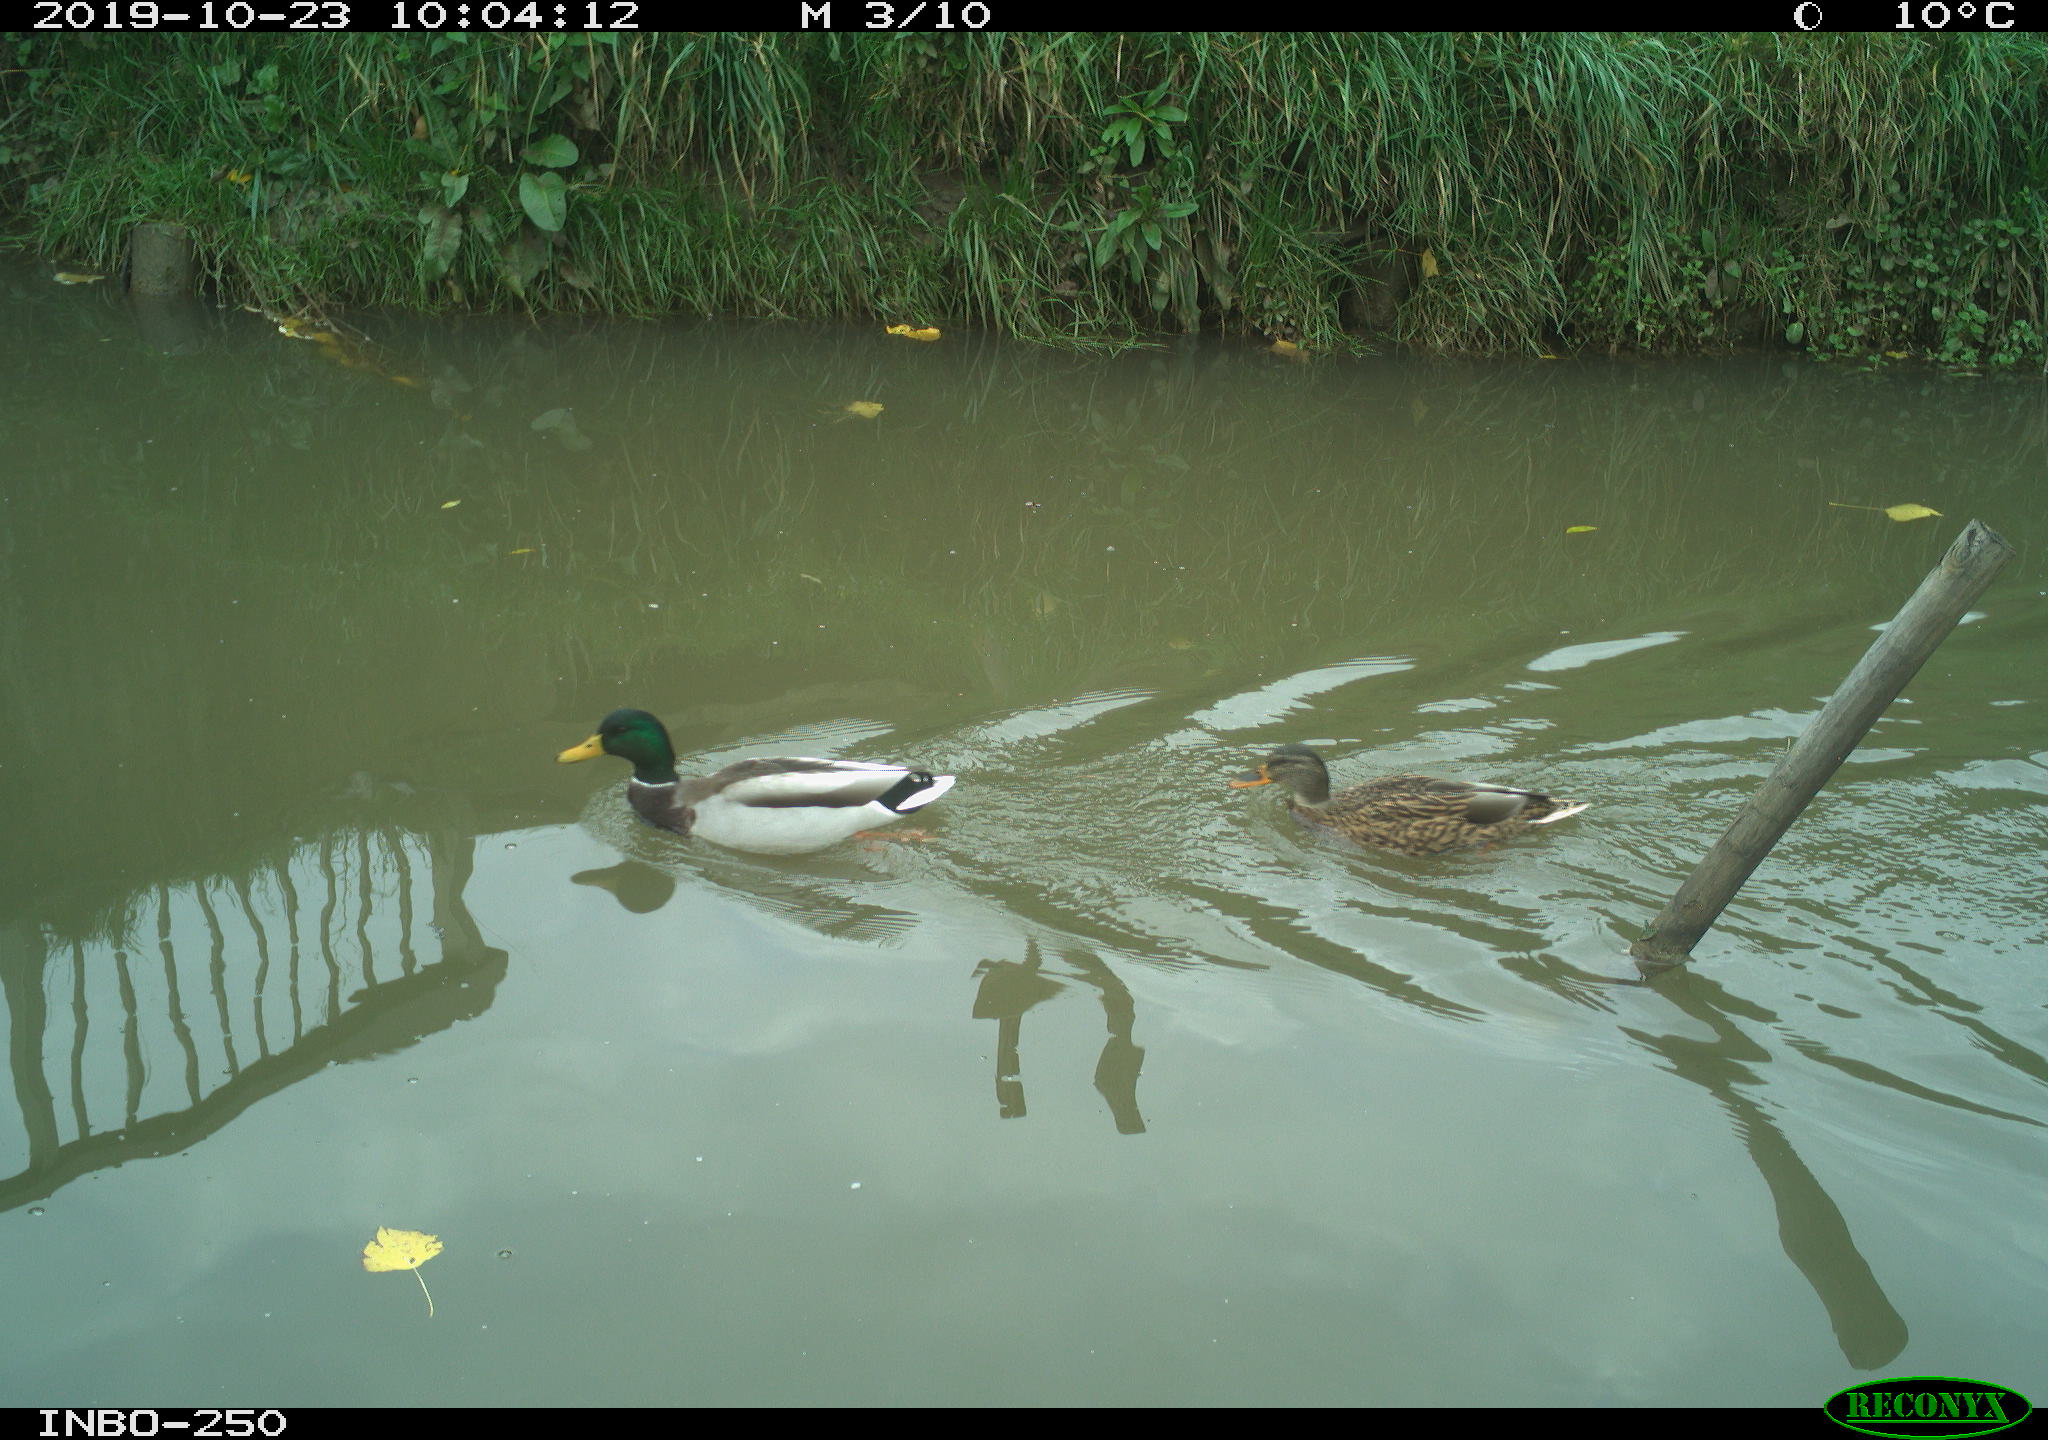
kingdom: Animalia
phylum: Chordata
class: Aves
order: Anseriformes
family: Anatidae
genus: Anas
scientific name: Anas platyrhynchos
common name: Mallard
